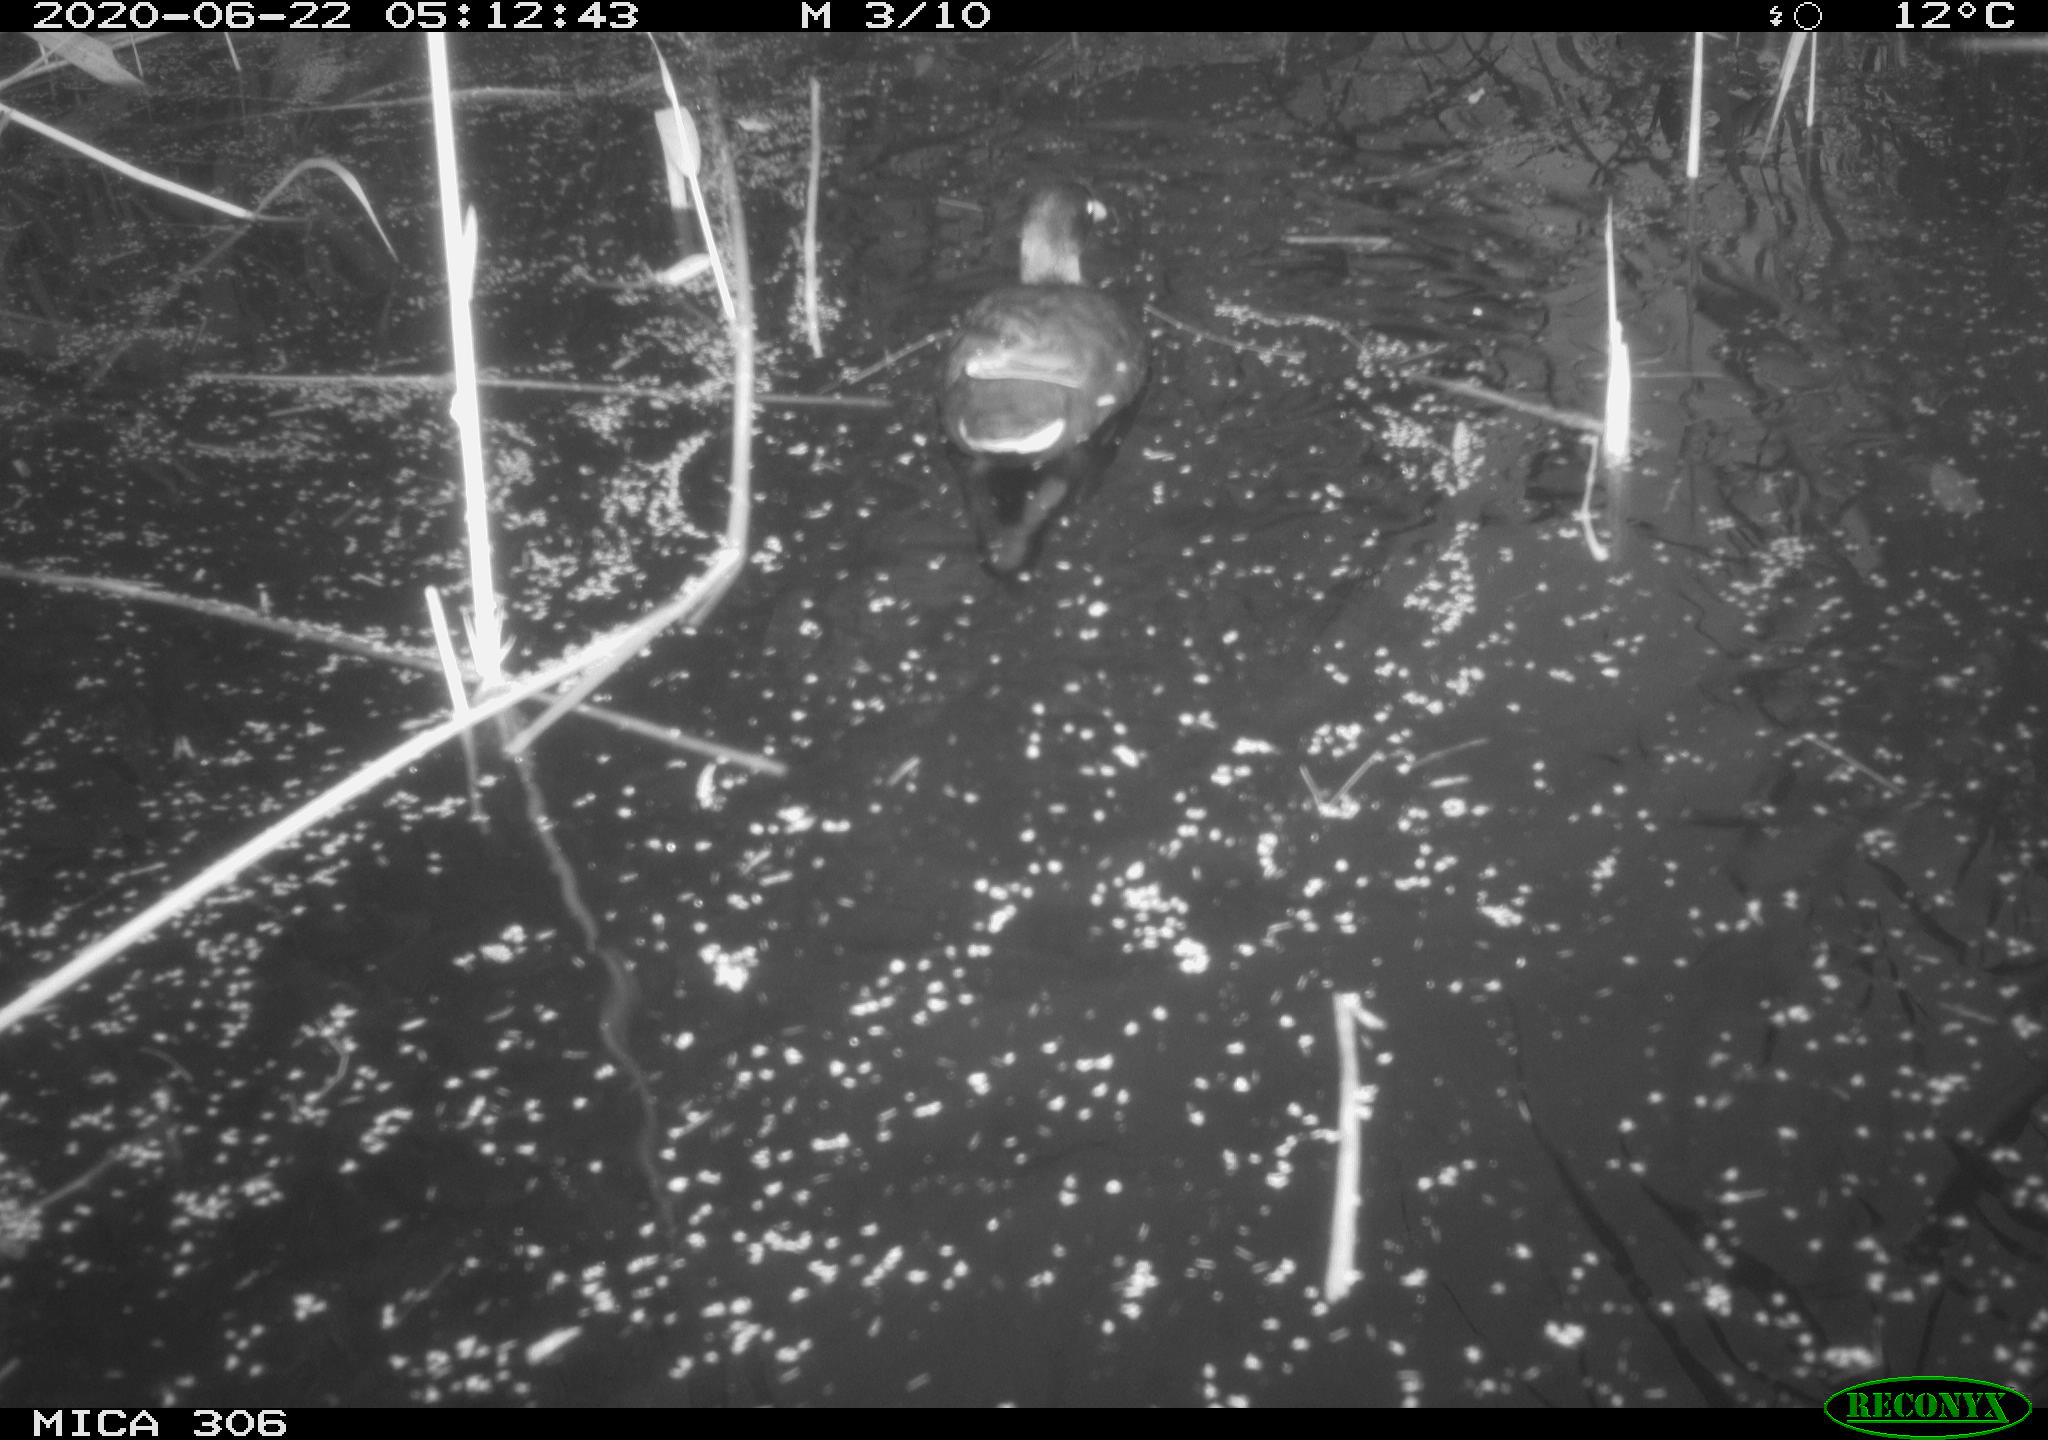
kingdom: Animalia
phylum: Chordata
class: Aves
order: Gruiformes
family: Rallidae
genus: Gallinula
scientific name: Gallinula chloropus
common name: Common moorhen
